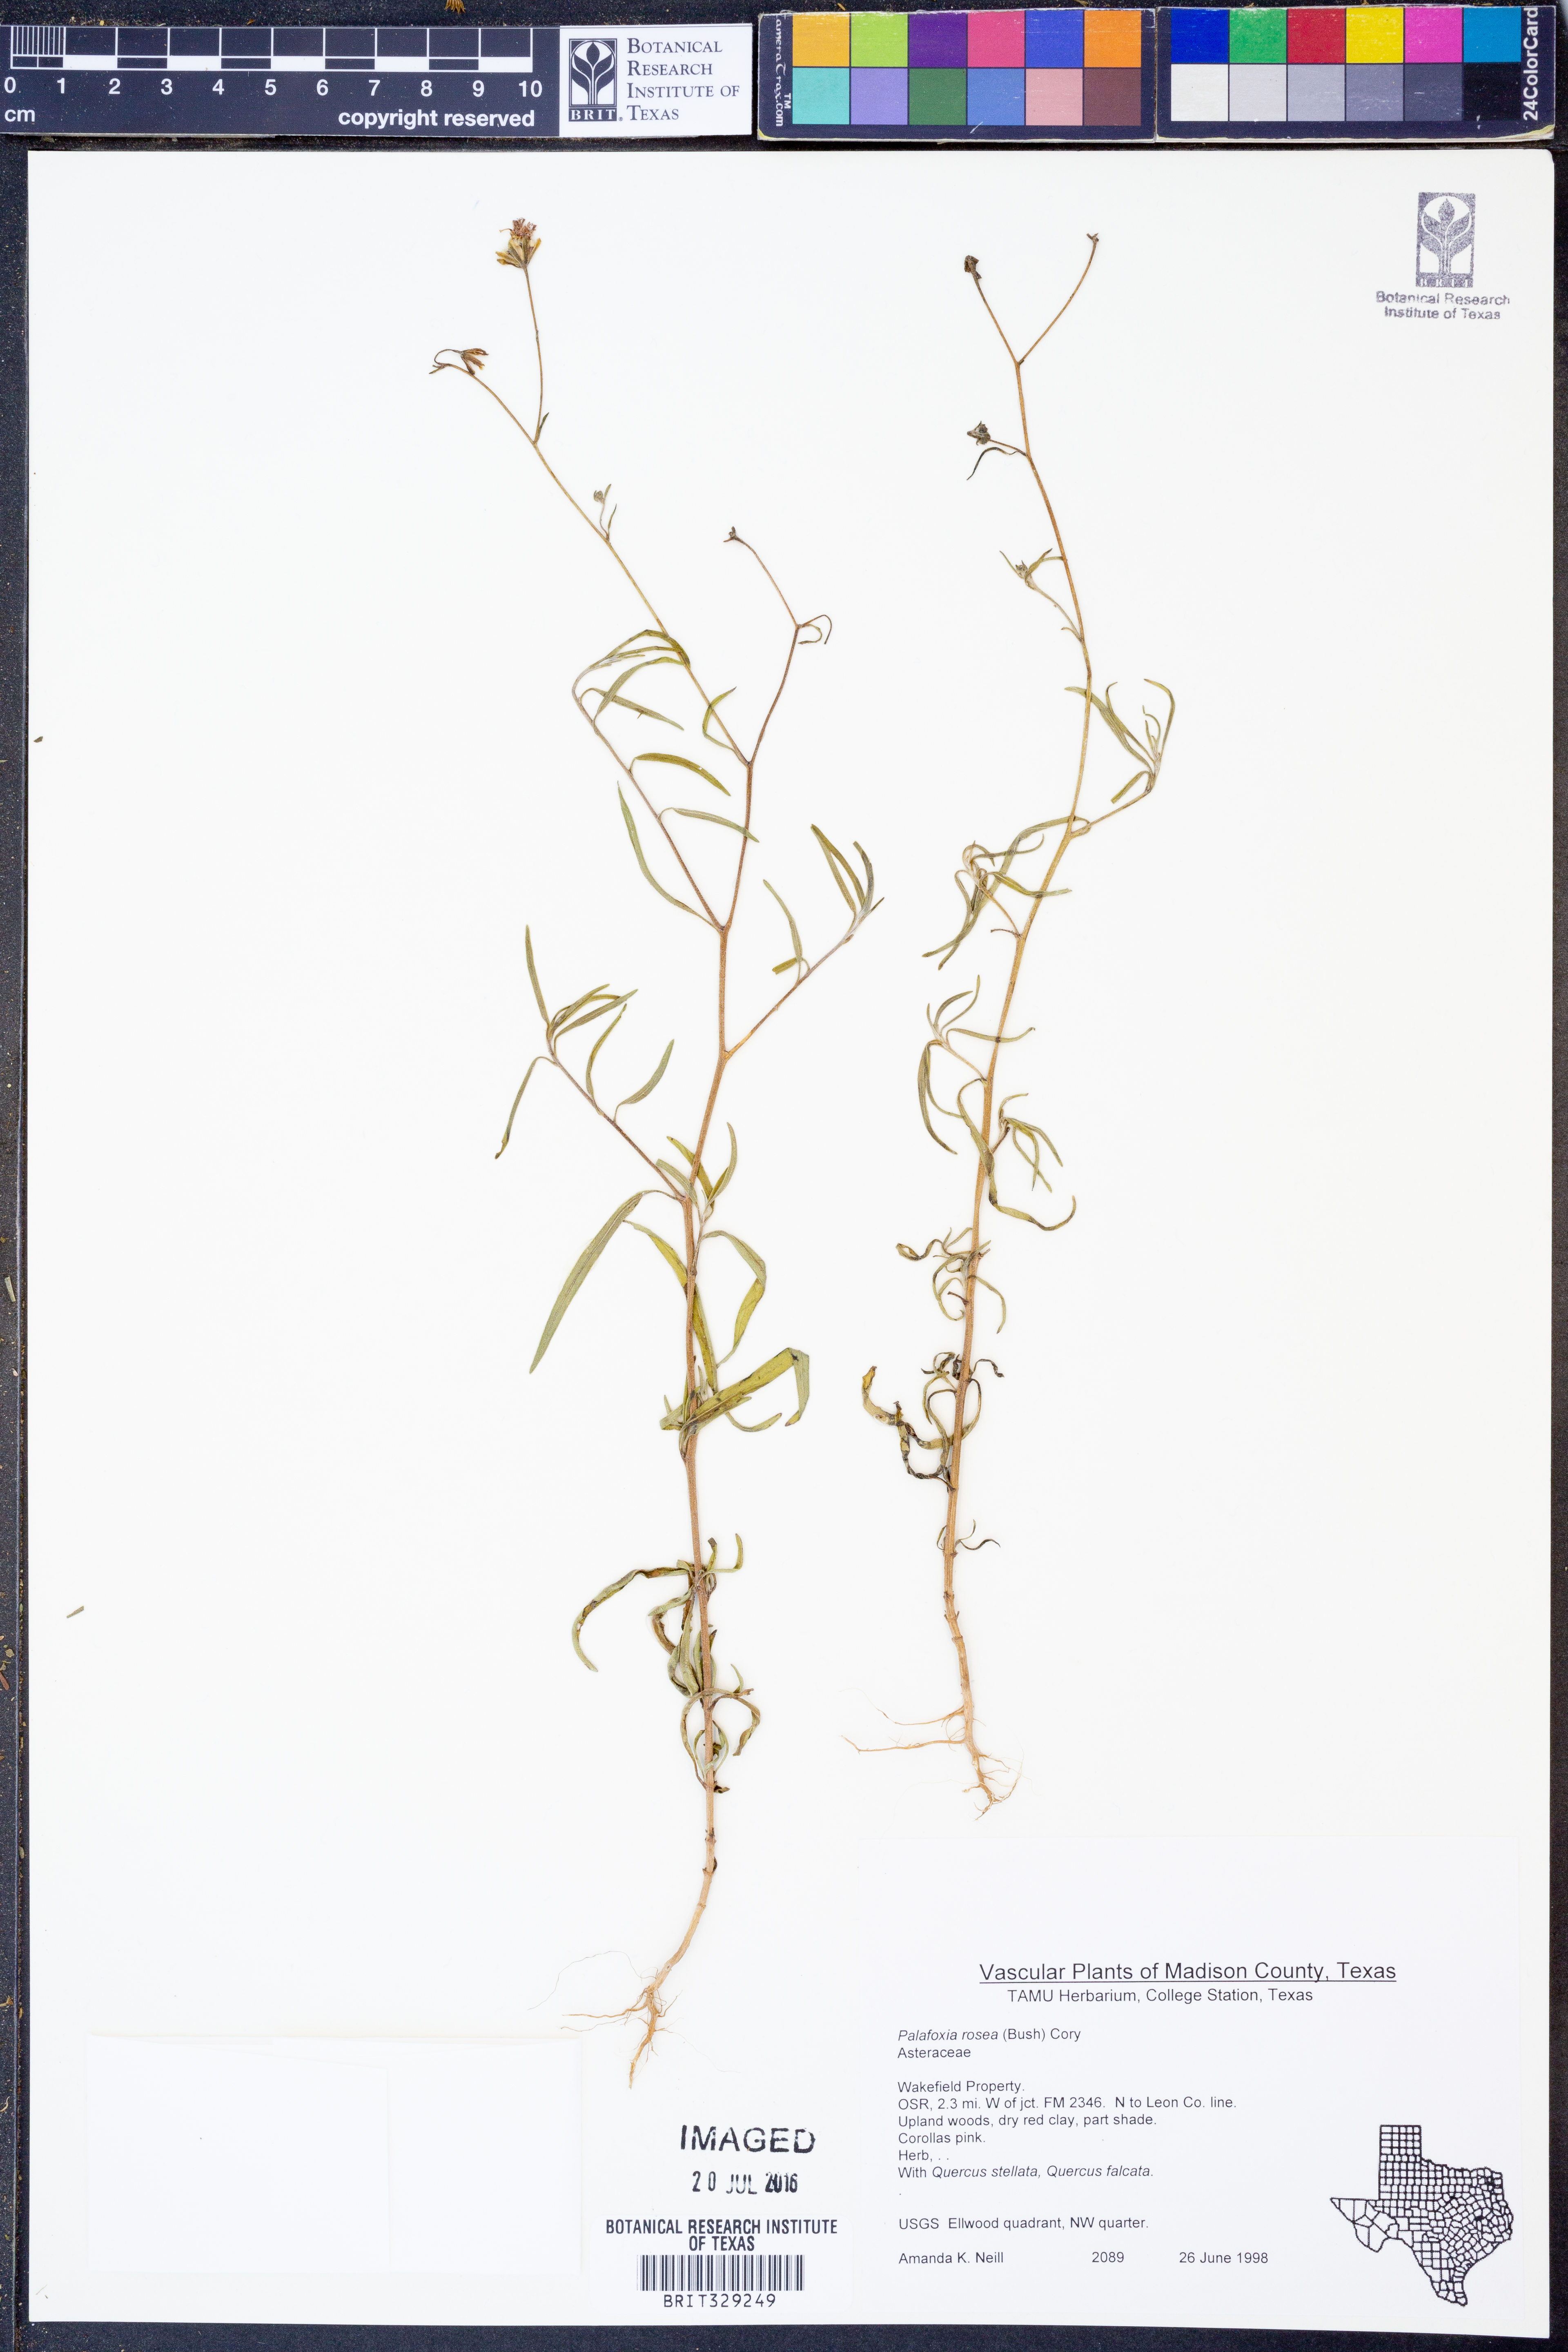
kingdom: Plantae
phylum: Tracheophyta
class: Magnoliopsida
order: Asterales
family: Asteraceae
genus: Palafoxia
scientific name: Palafoxia rosea
